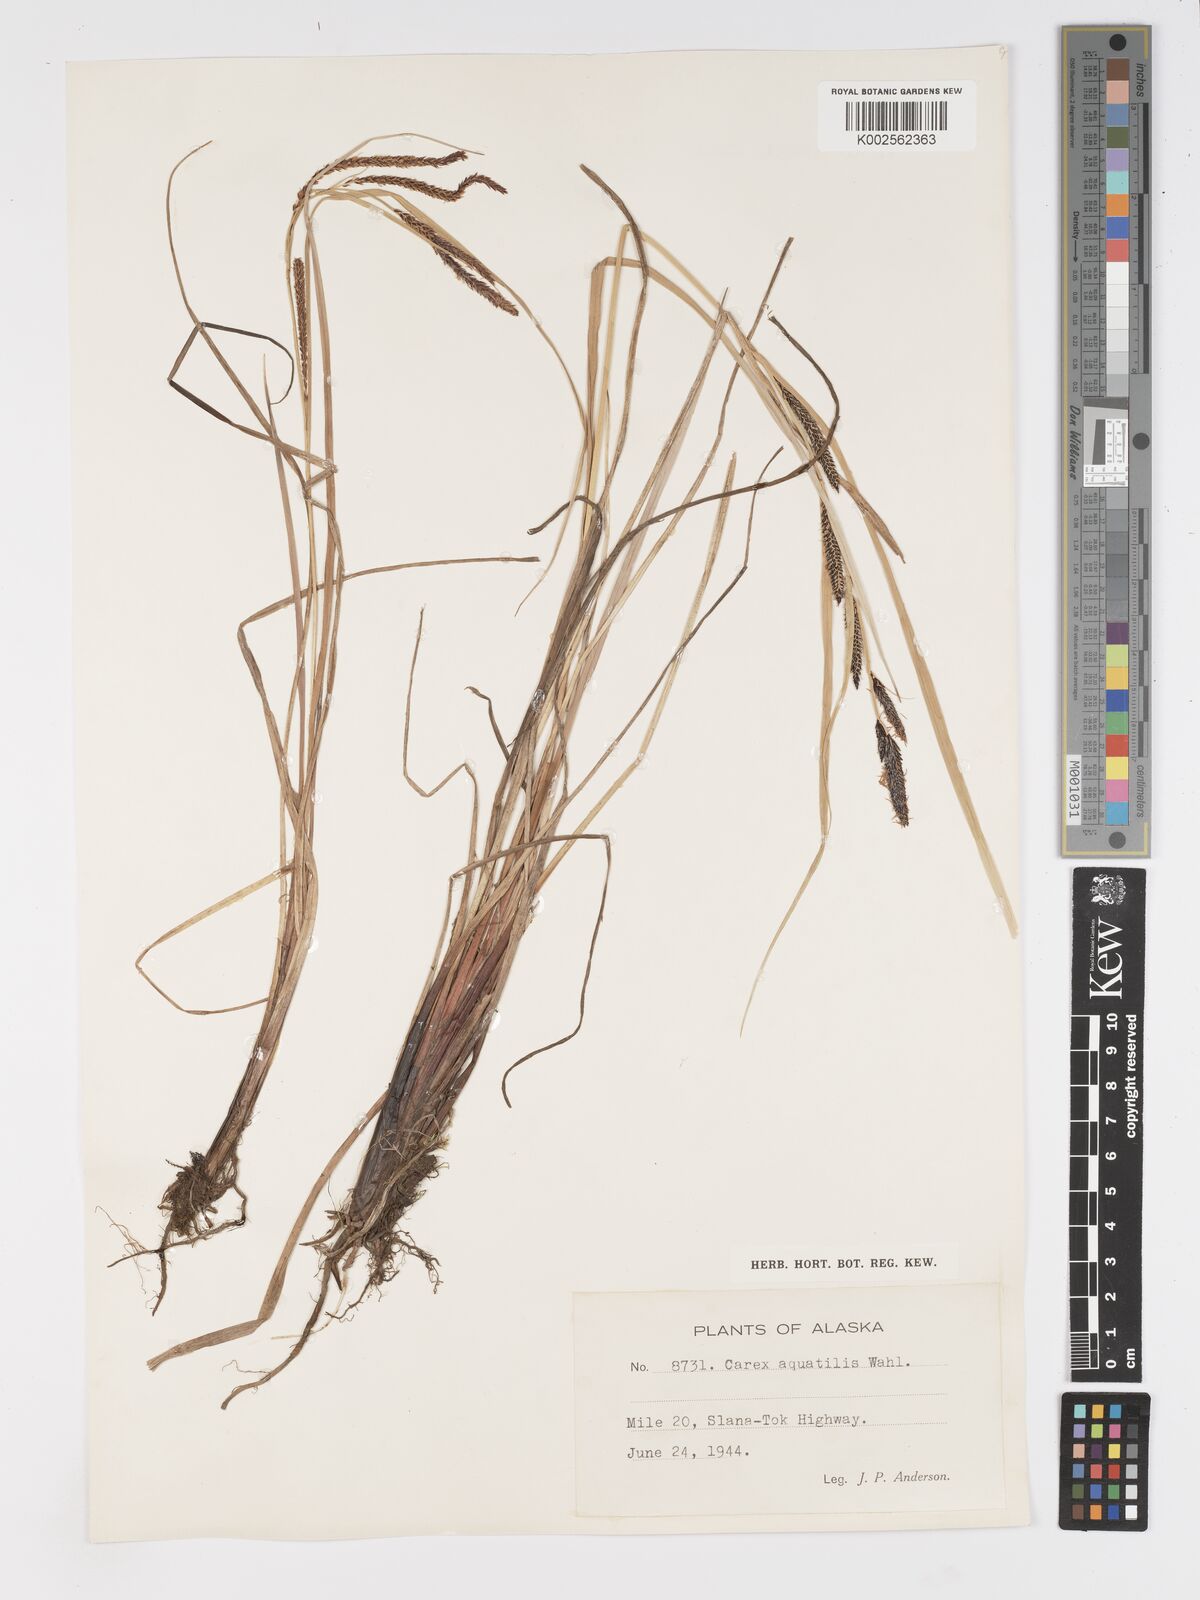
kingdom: Plantae
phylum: Tracheophyta
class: Liliopsida
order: Poales
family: Cyperaceae
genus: Carex
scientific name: Carex aquatilis
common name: Water sedge
